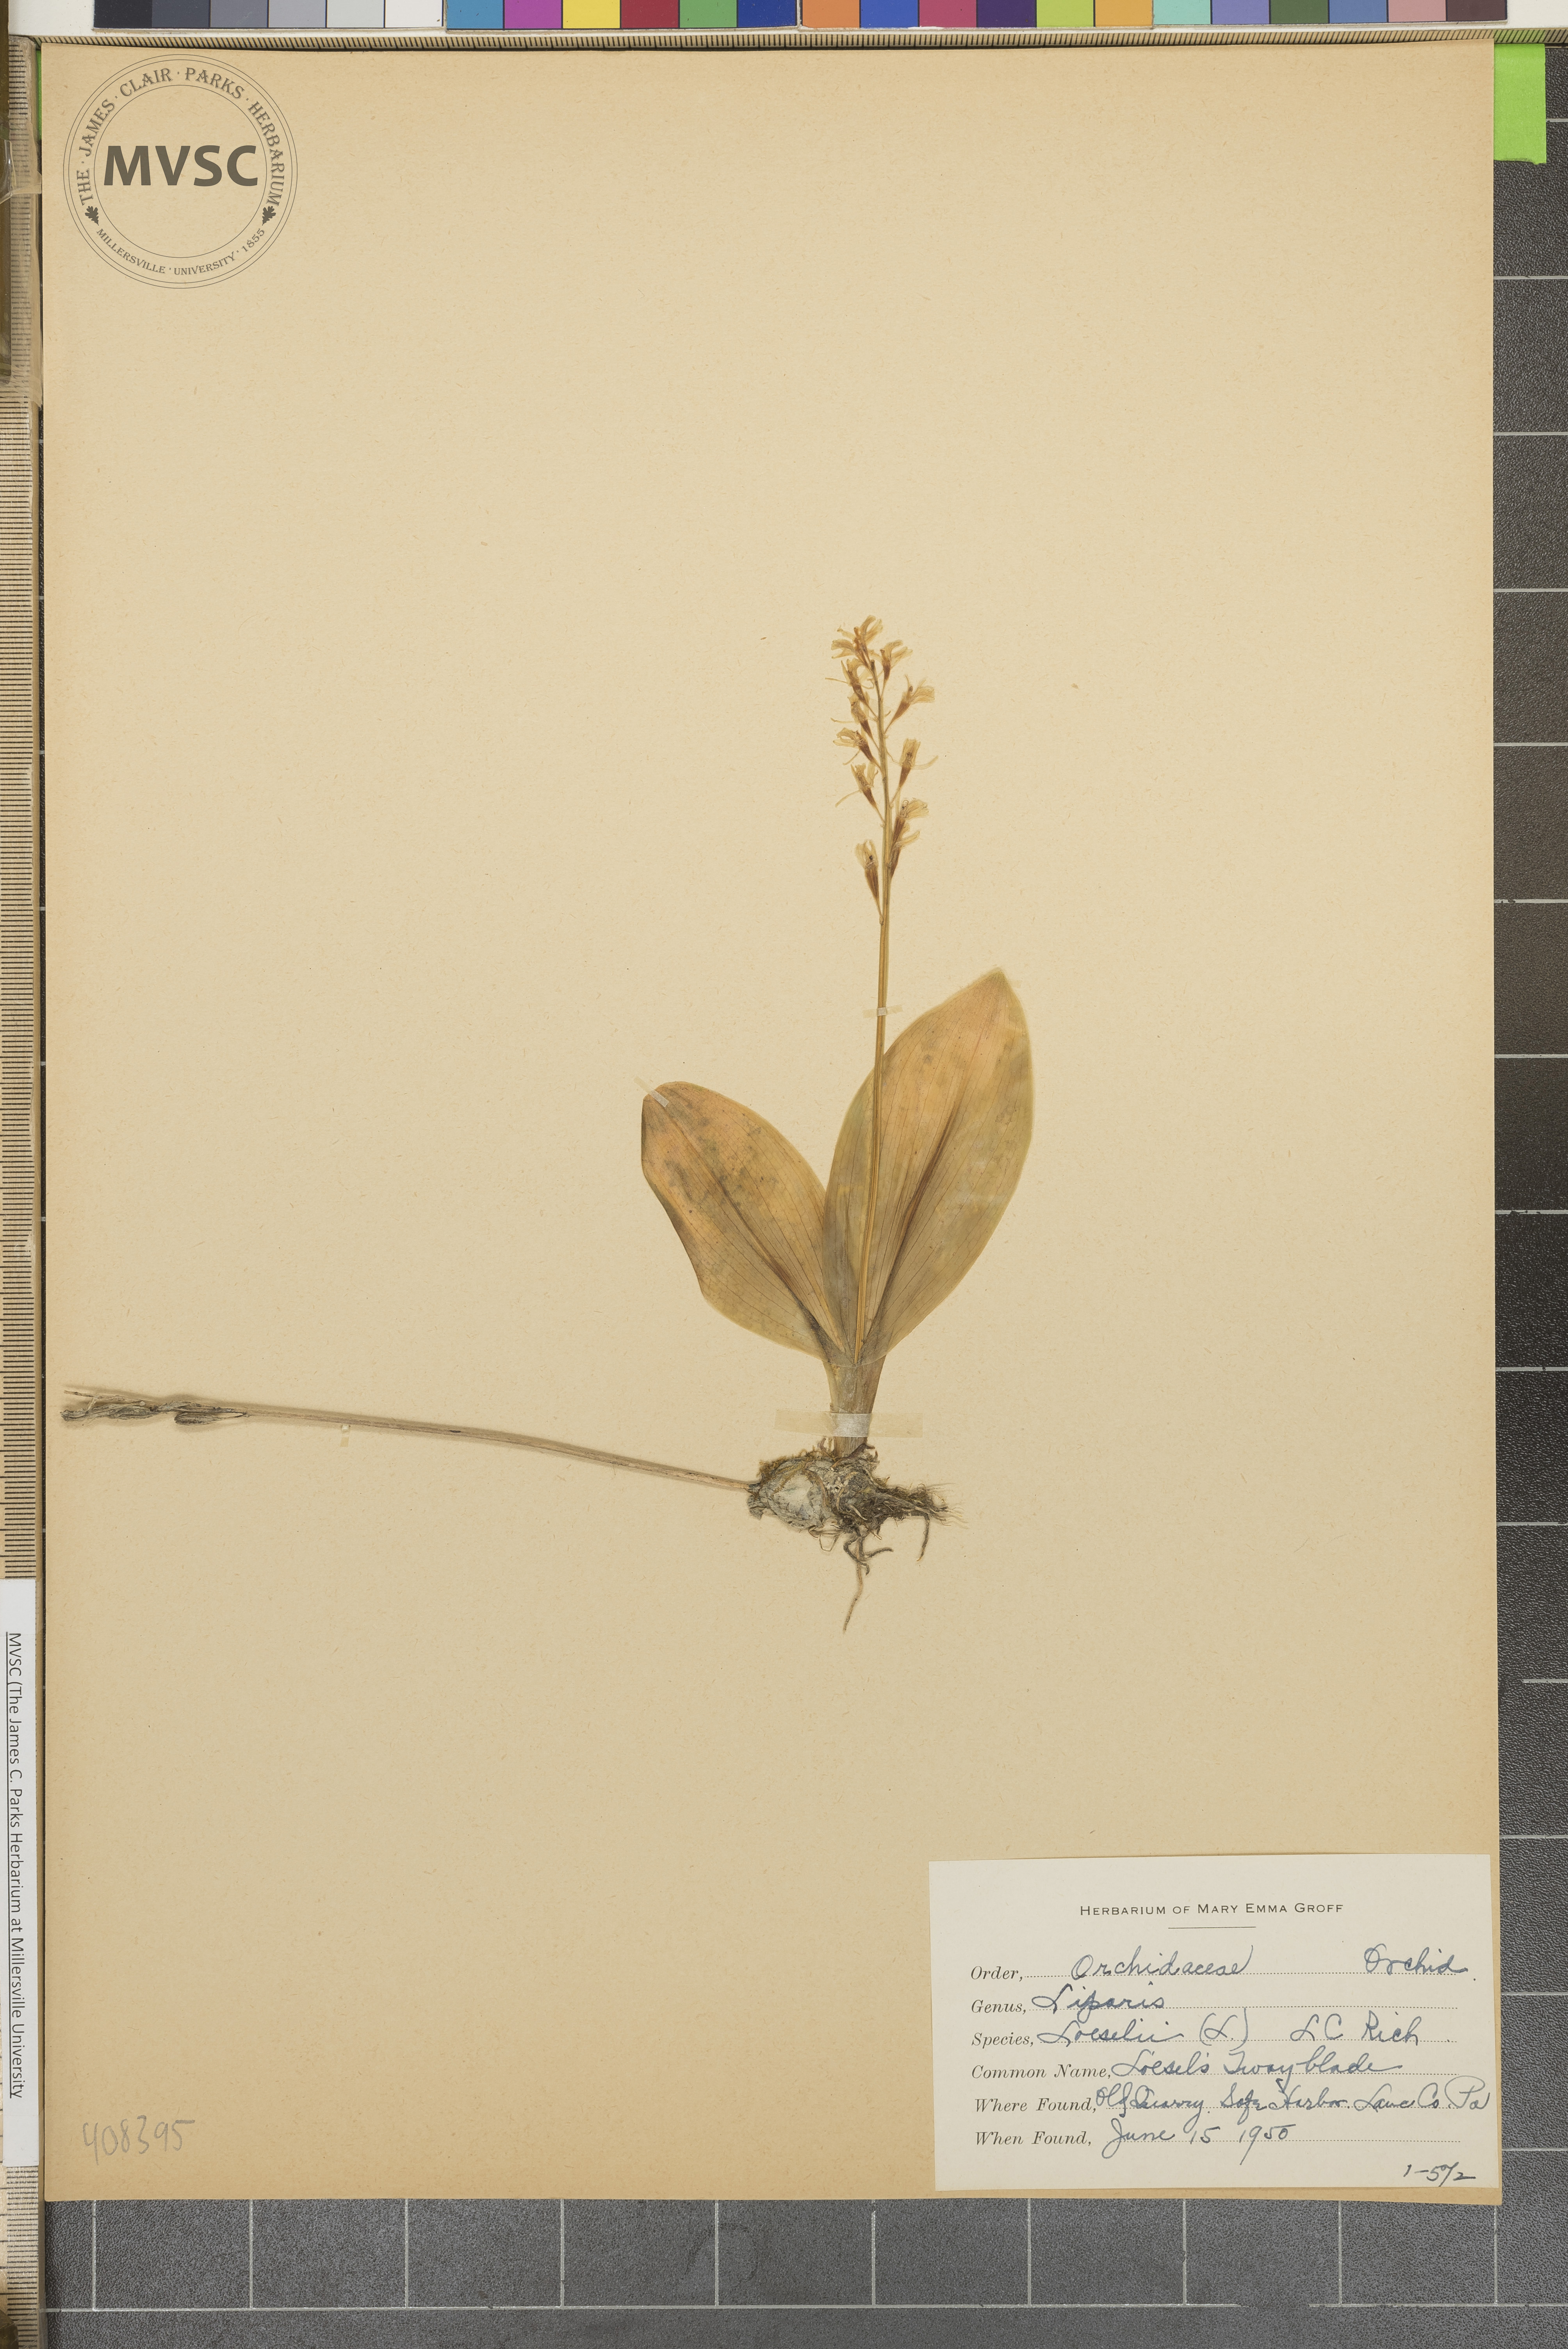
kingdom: Animalia
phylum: Arthropoda
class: Insecta
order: Coleoptera
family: Curculionidae
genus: Liparis
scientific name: Liparis loeselii
